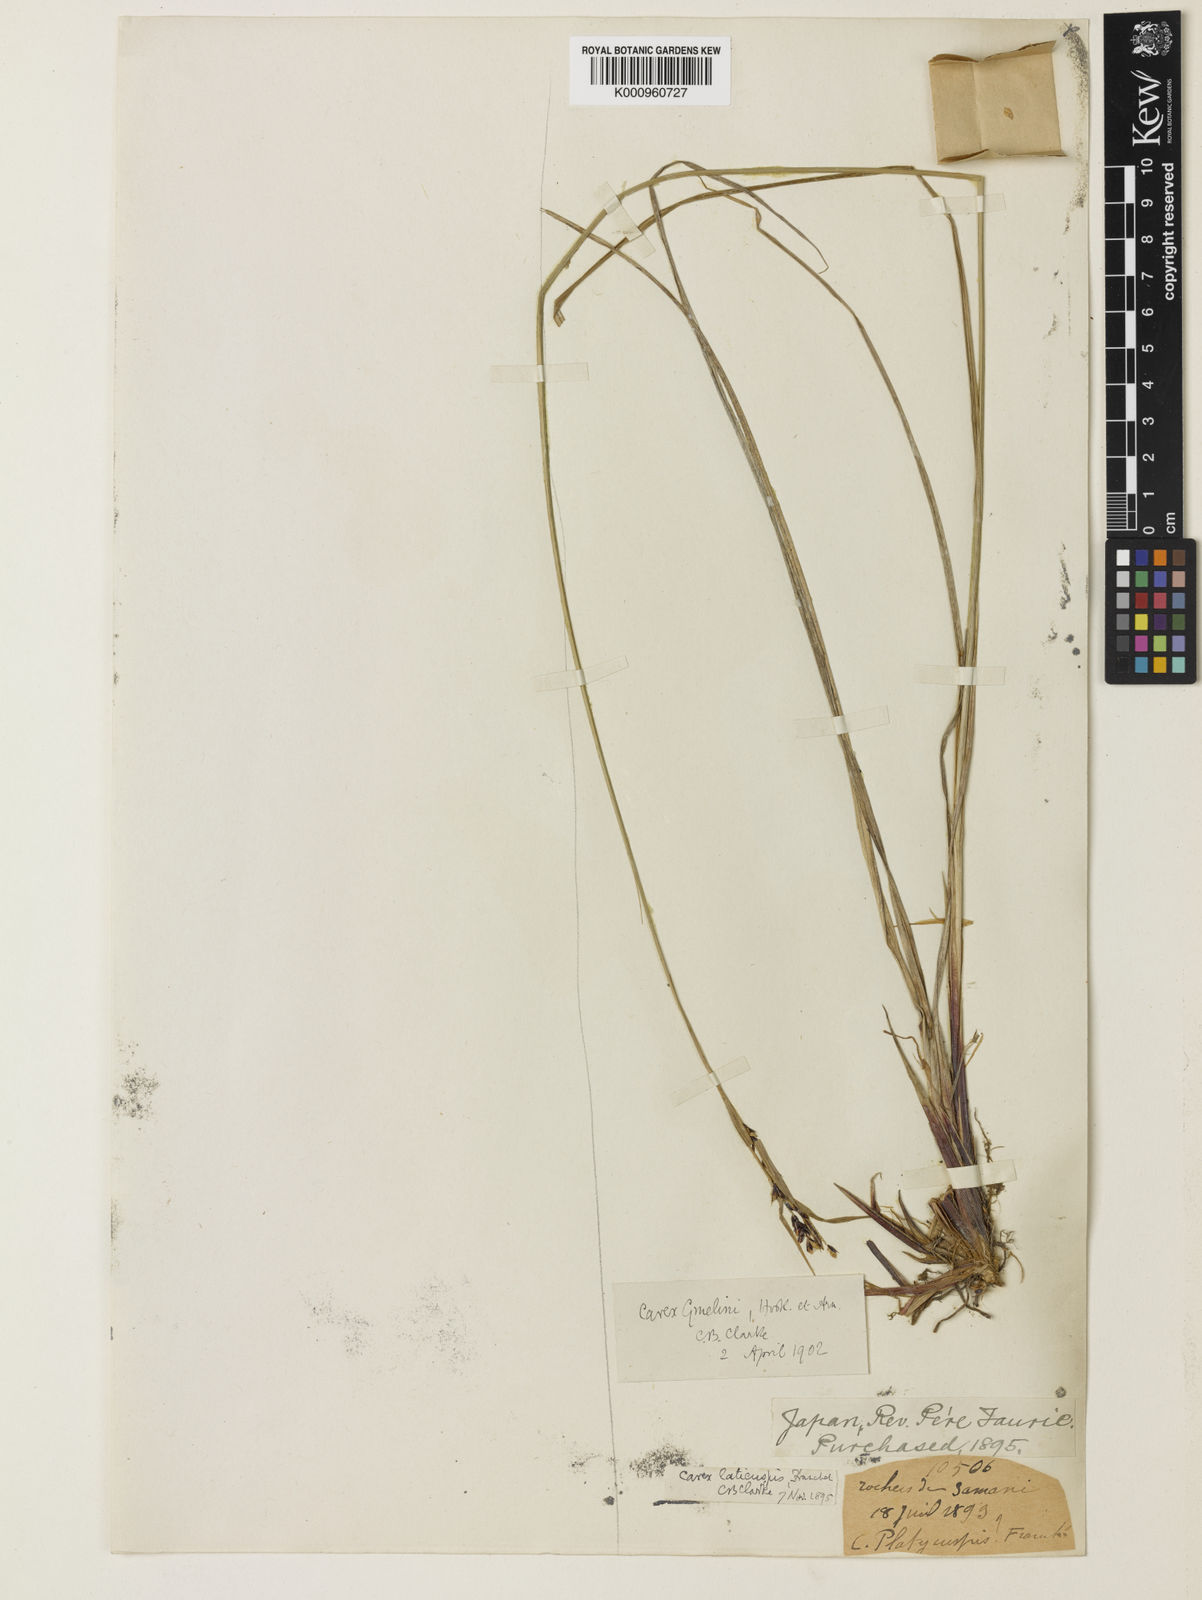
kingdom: Plantae
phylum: Tracheophyta
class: Liliopsida
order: Poales
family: Cyperaceae
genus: Carex
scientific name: Carex gmelinii
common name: Gmelin's sedge
